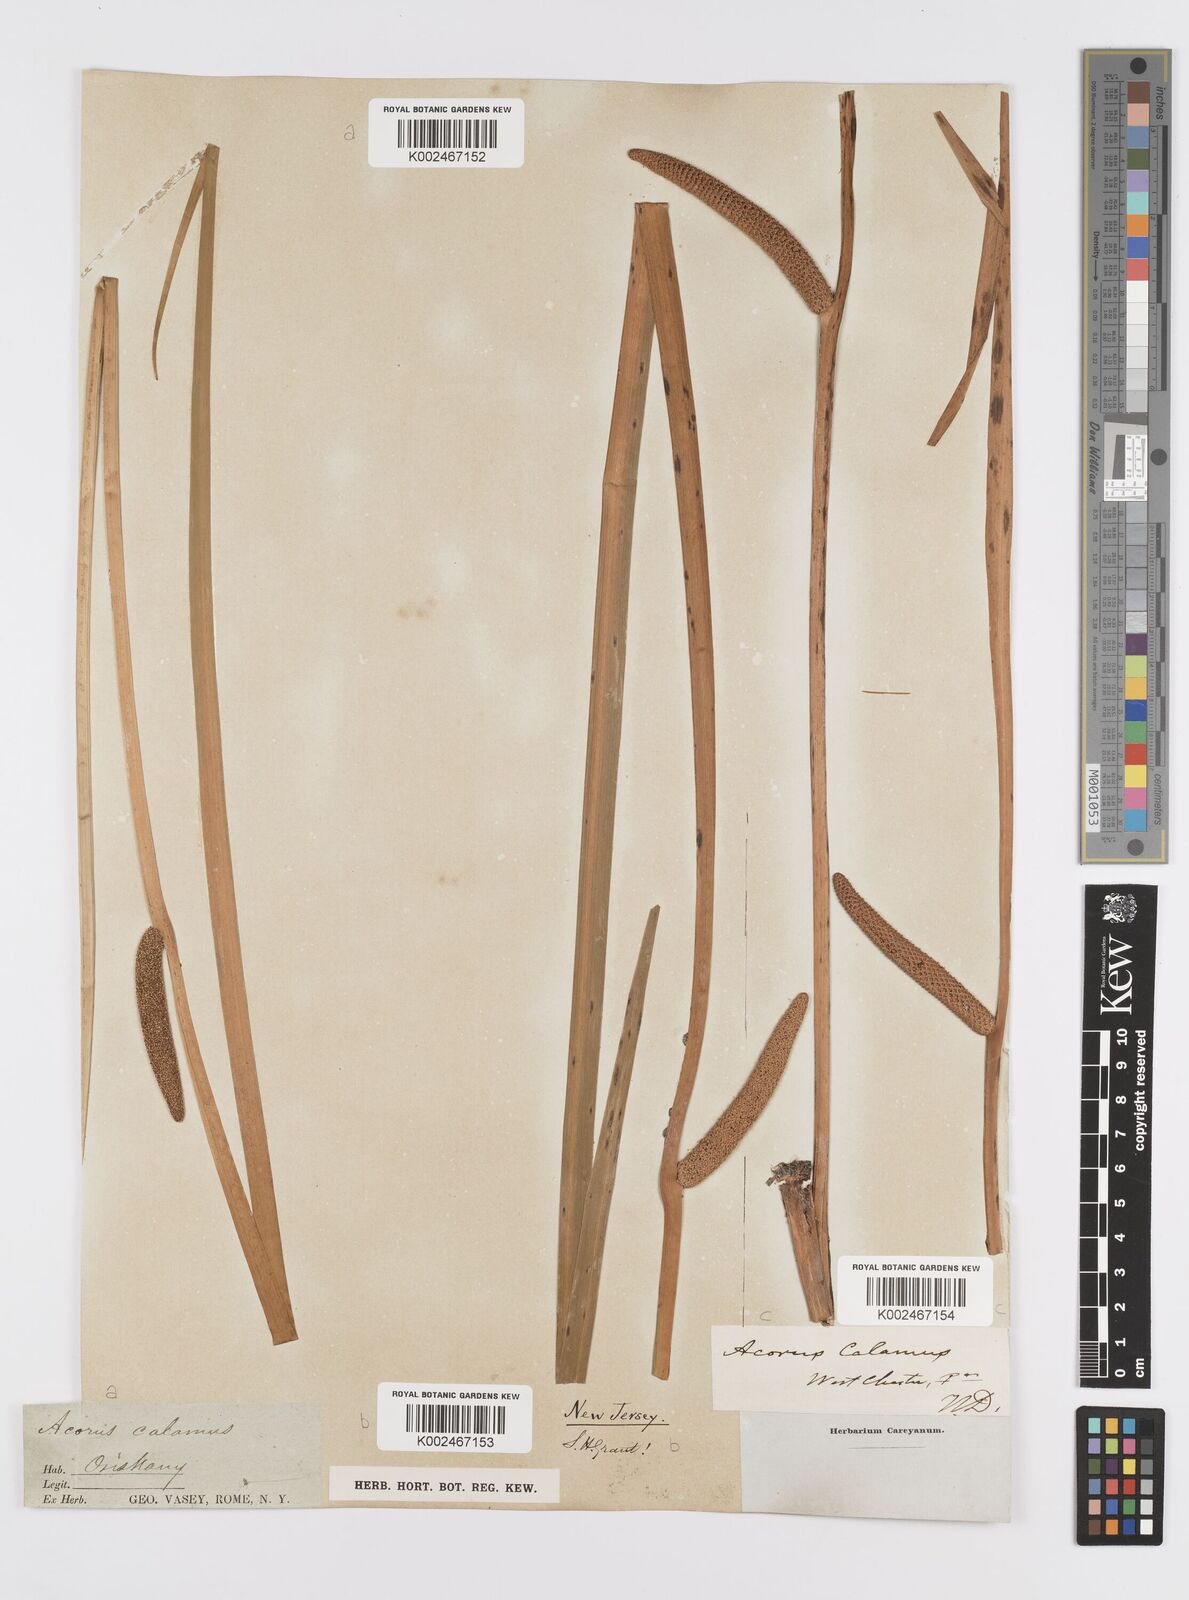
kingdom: Plantae
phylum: Tracheophyta
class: Liliopsida
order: Acorales
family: Acoraceae
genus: Acorus
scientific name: Acorus calamus
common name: Sweet-flag
